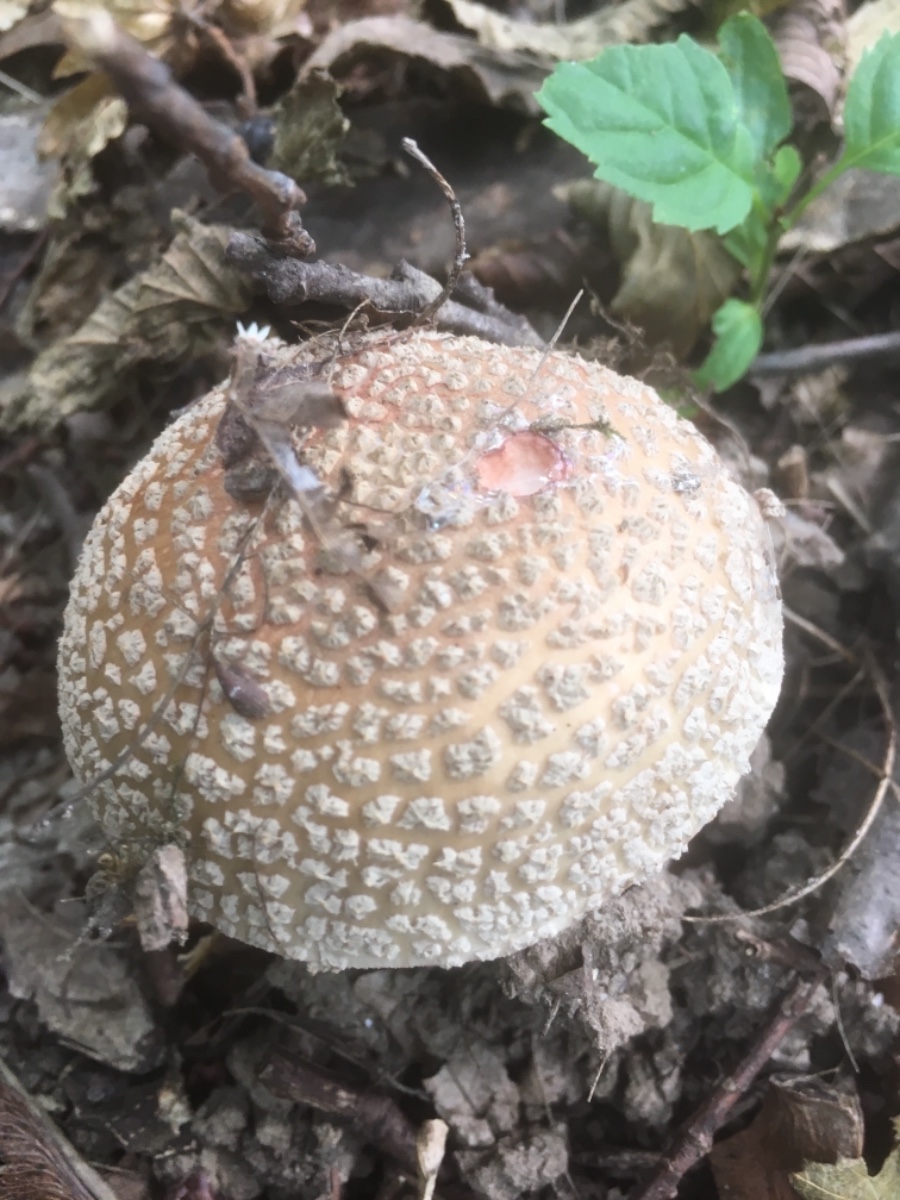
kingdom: Fungi
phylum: Basidiomycota
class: Agaricomycetes
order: Agaricales
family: Amanitaceae
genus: Amanita
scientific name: Amanita rubescens
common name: rødmende fluesvamp
